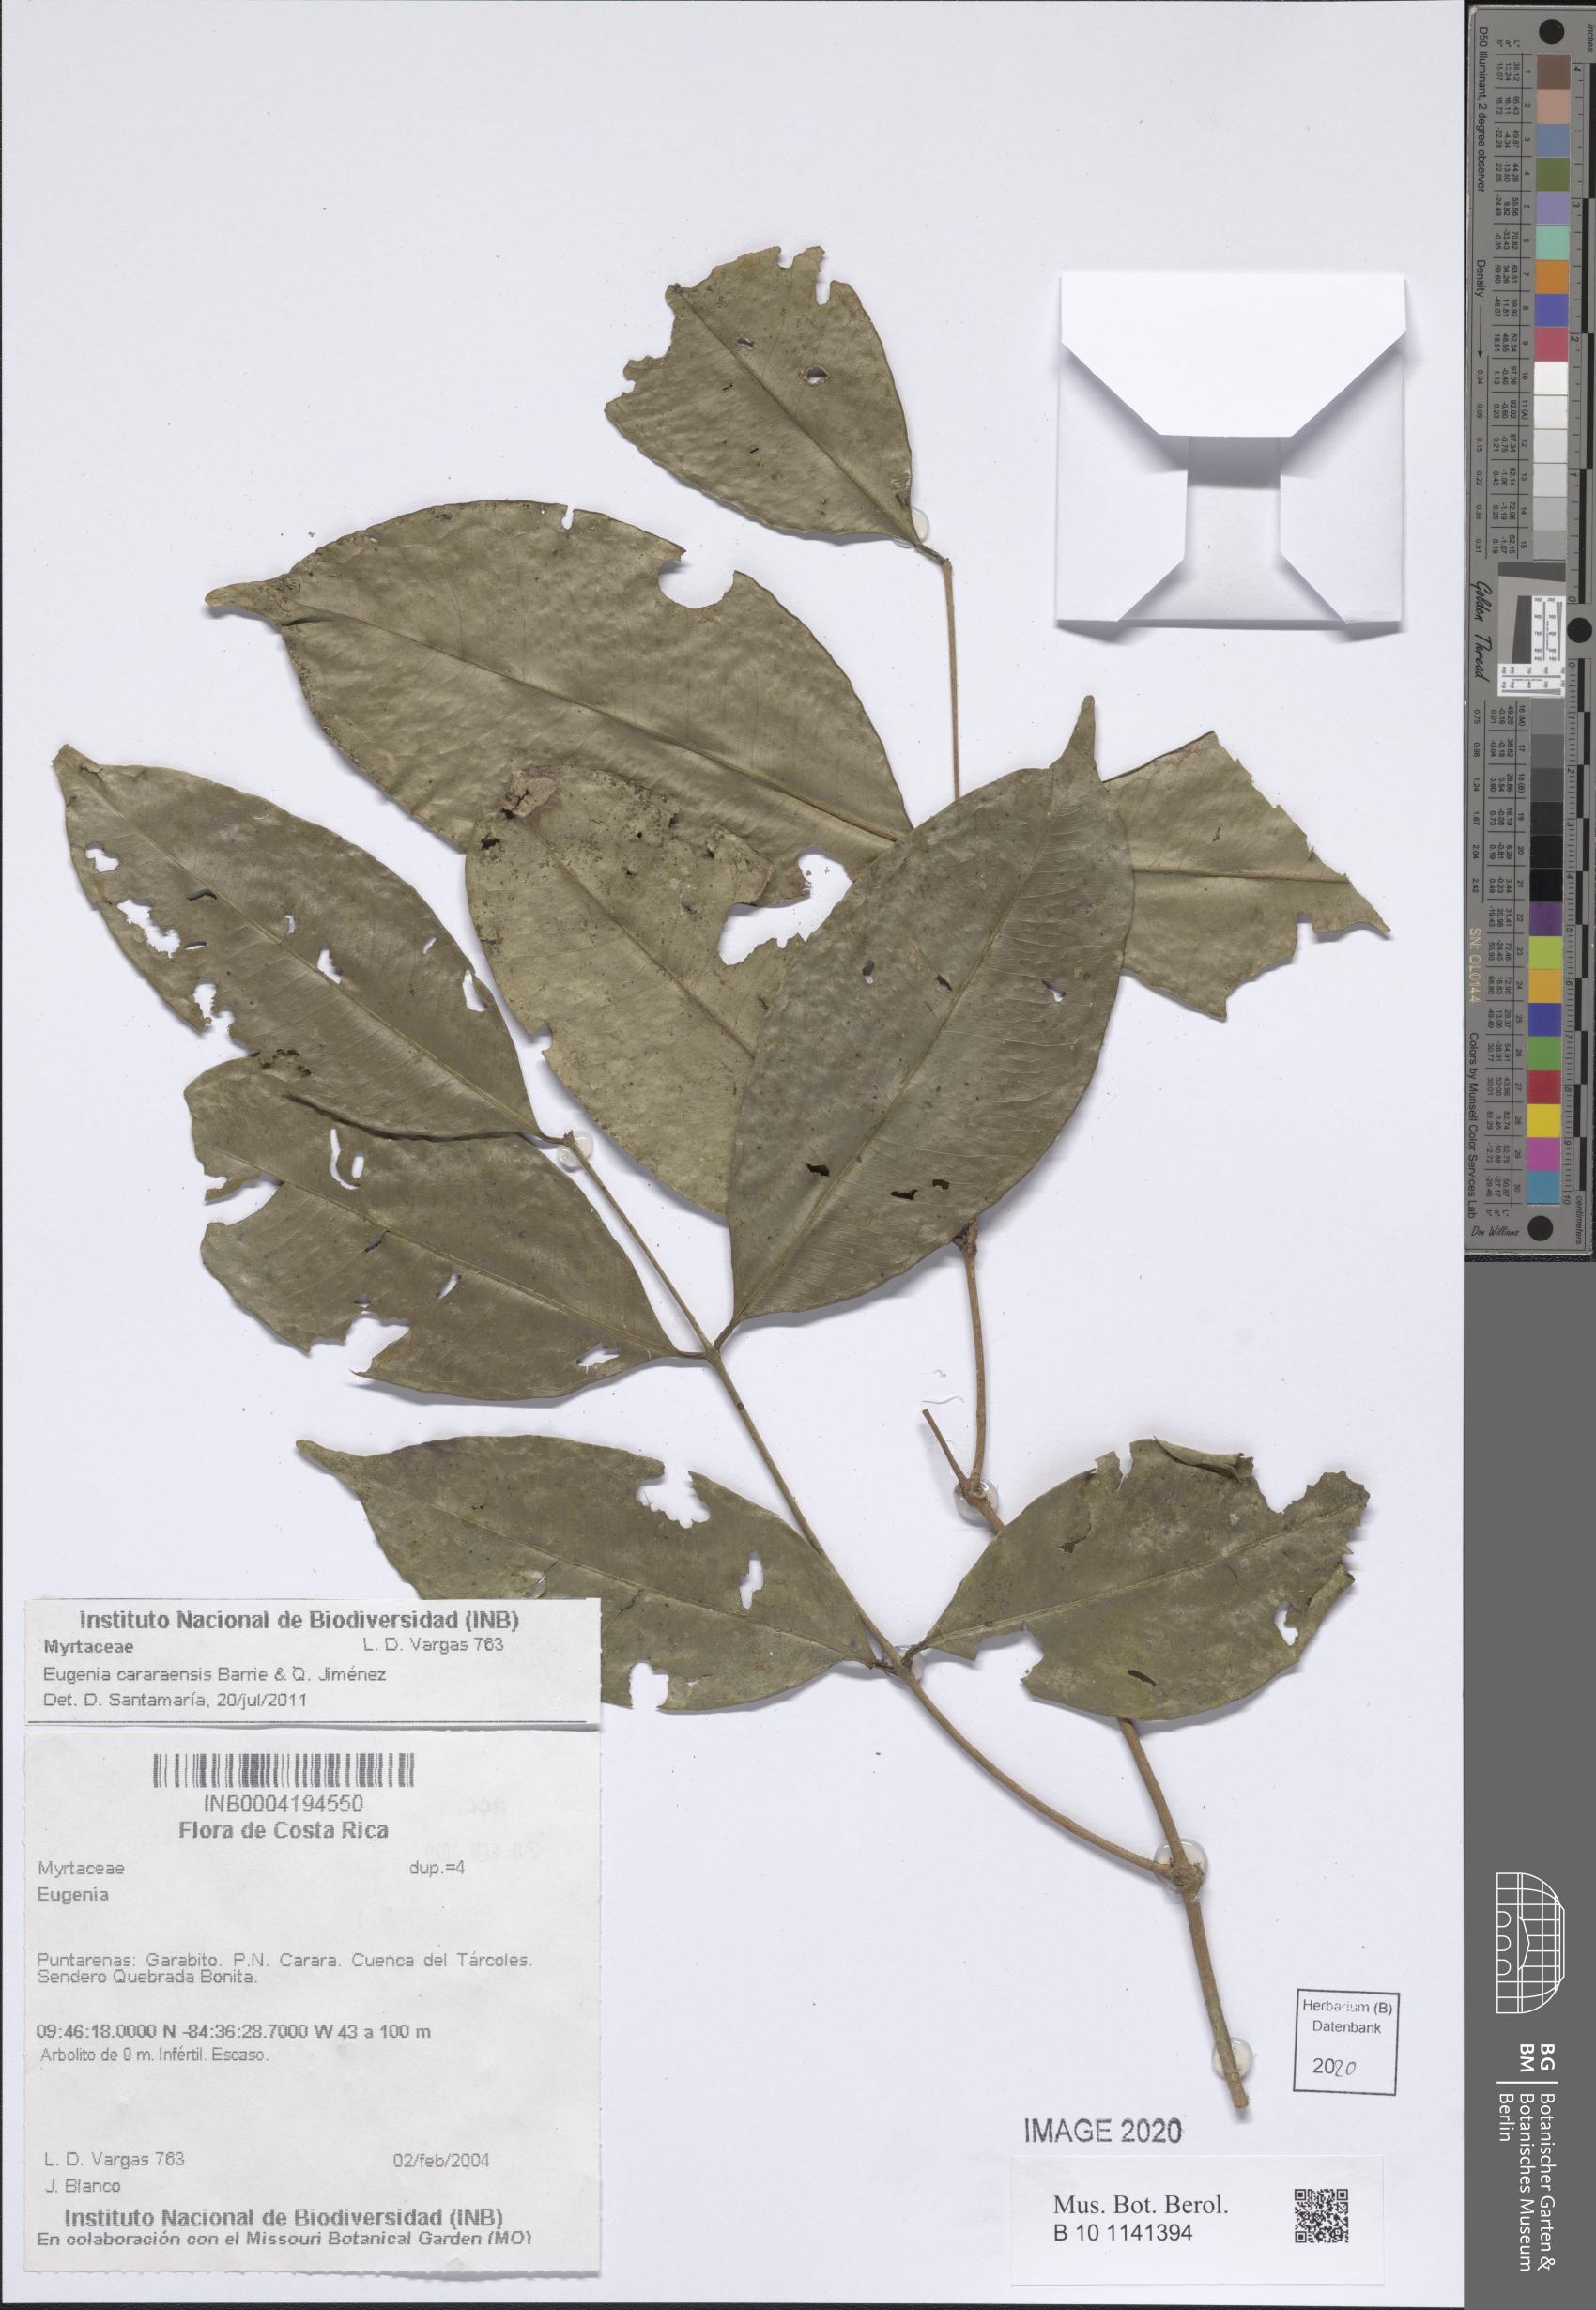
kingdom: Plantae
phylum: Tracheophyta
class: Magnoliopsida
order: Myrtales
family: Myrtaceae
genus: Eugenia
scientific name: Eugenia cararensis
